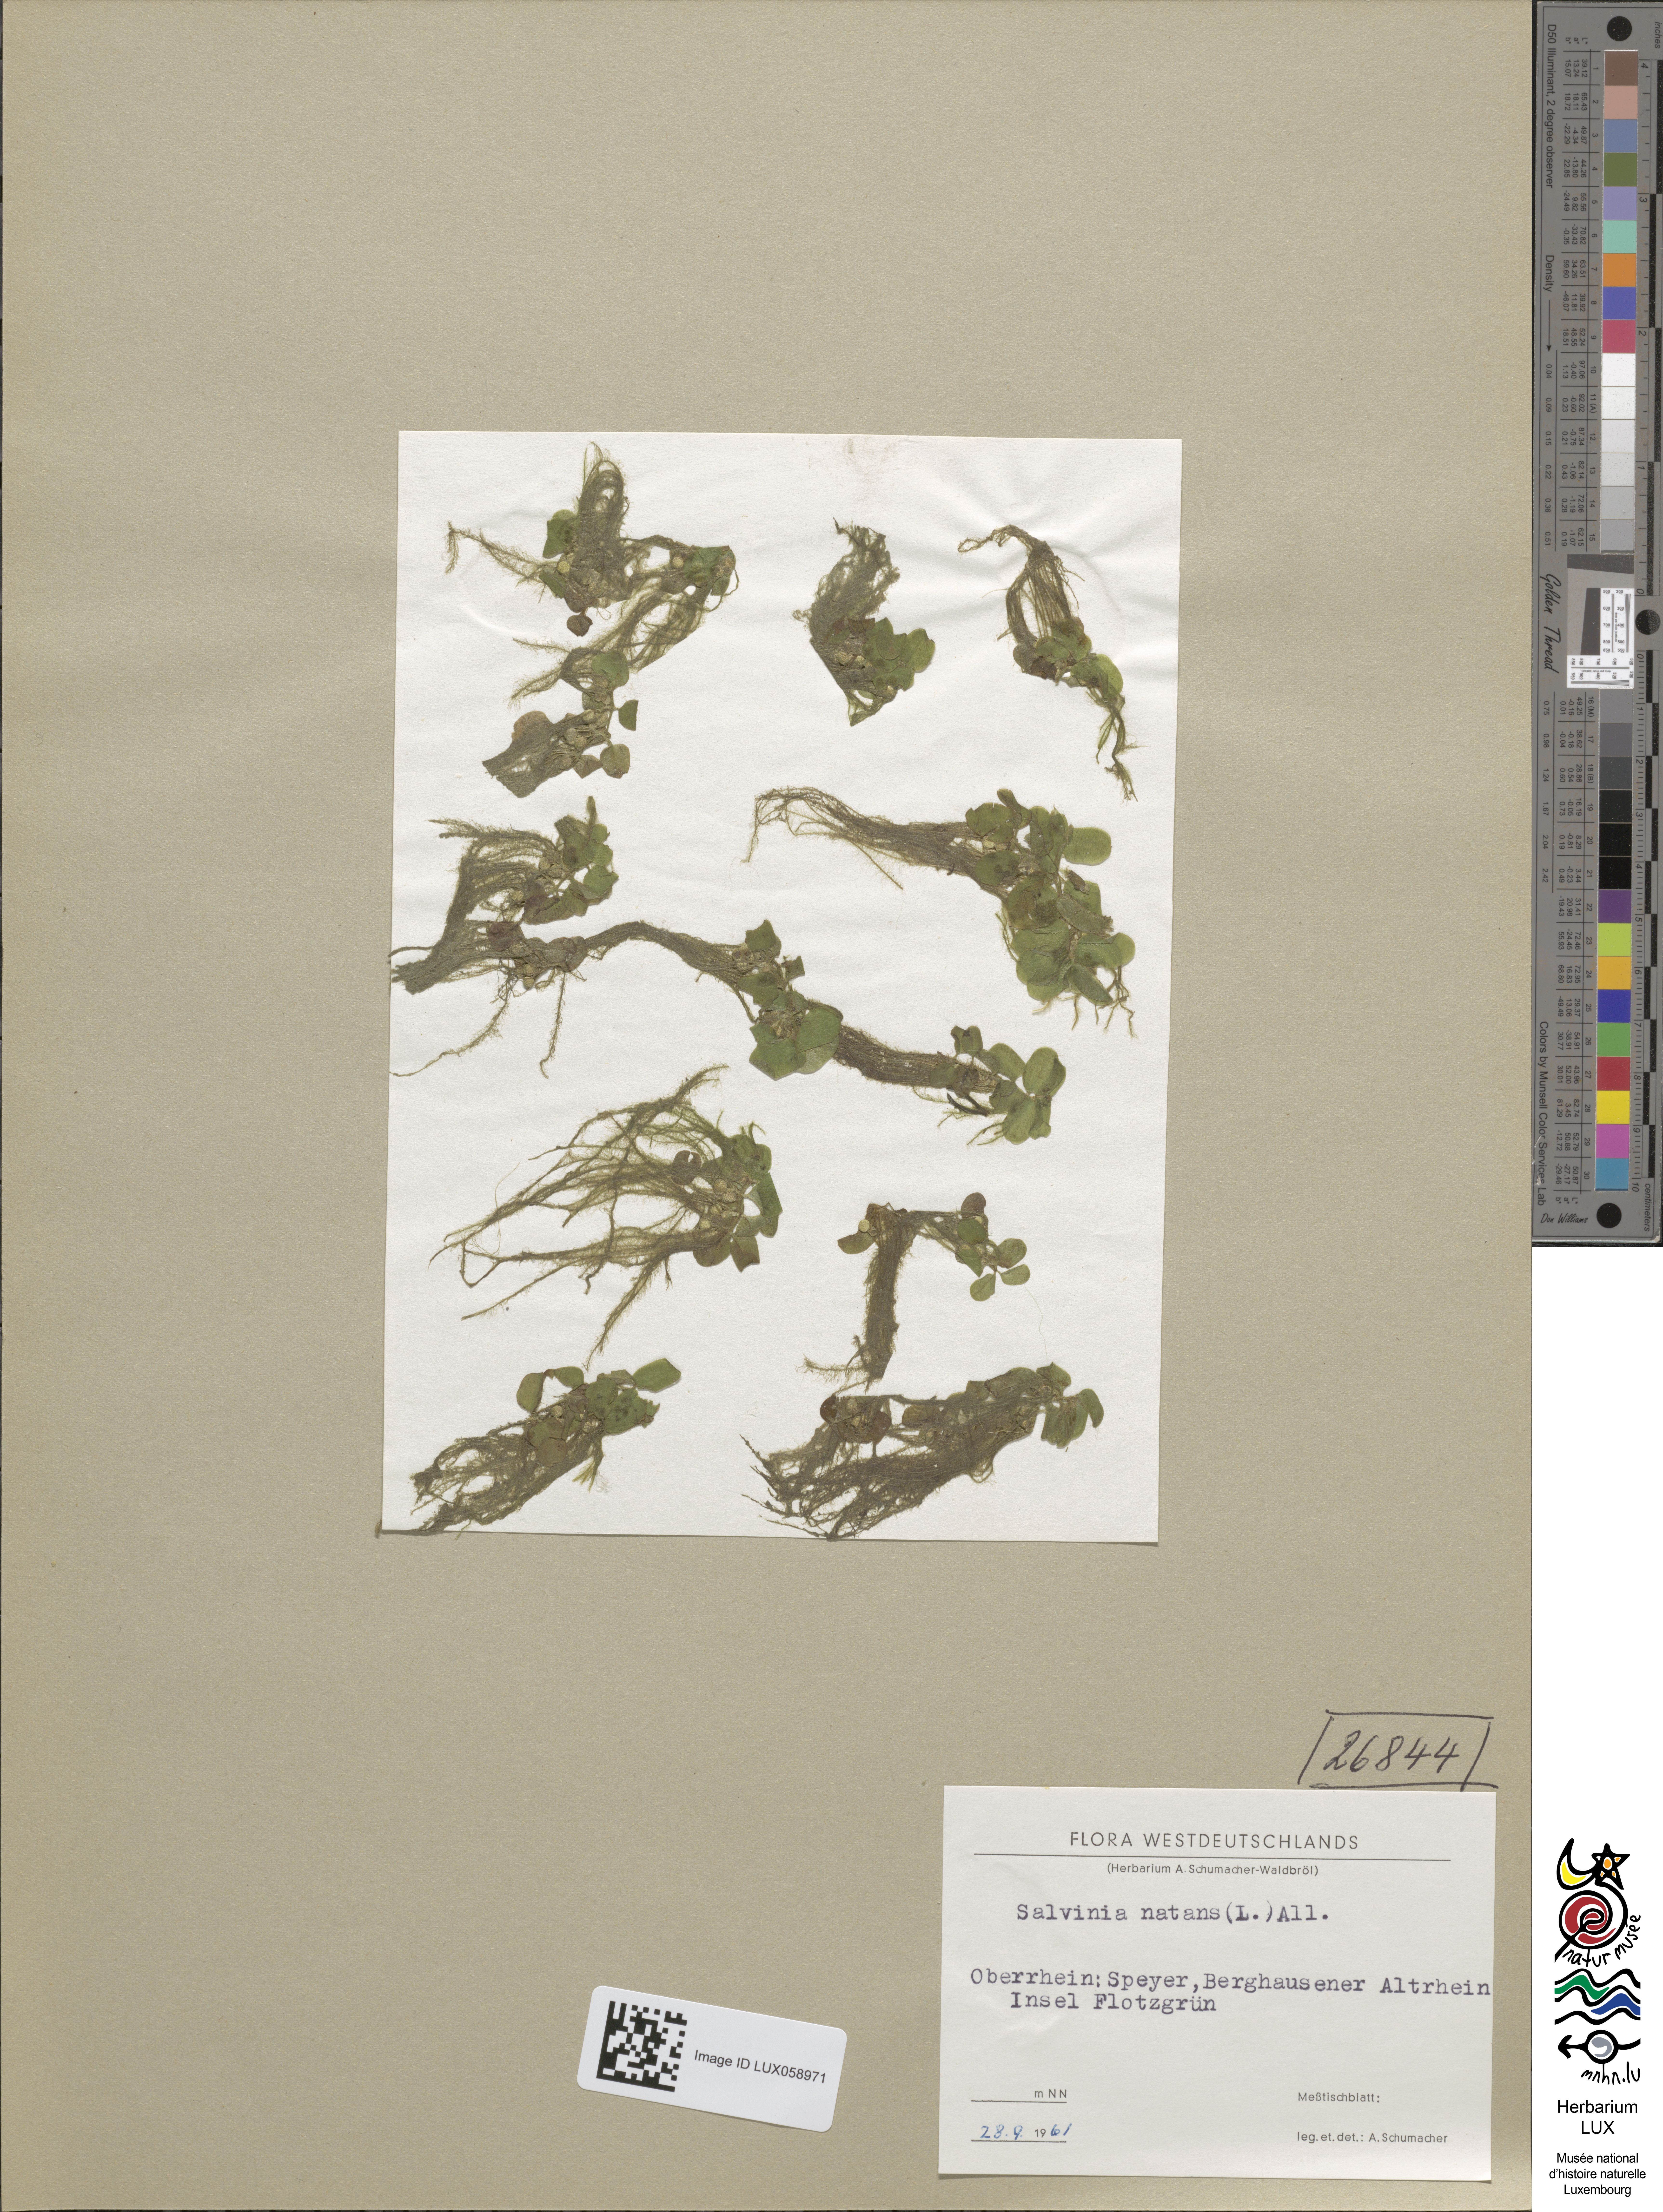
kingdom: Plantae
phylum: Tracheophyta
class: Polypodiopsida
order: Salviniales
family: Salviniaceae
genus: Salvinia
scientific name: Salvinia natans
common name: Floating fern
